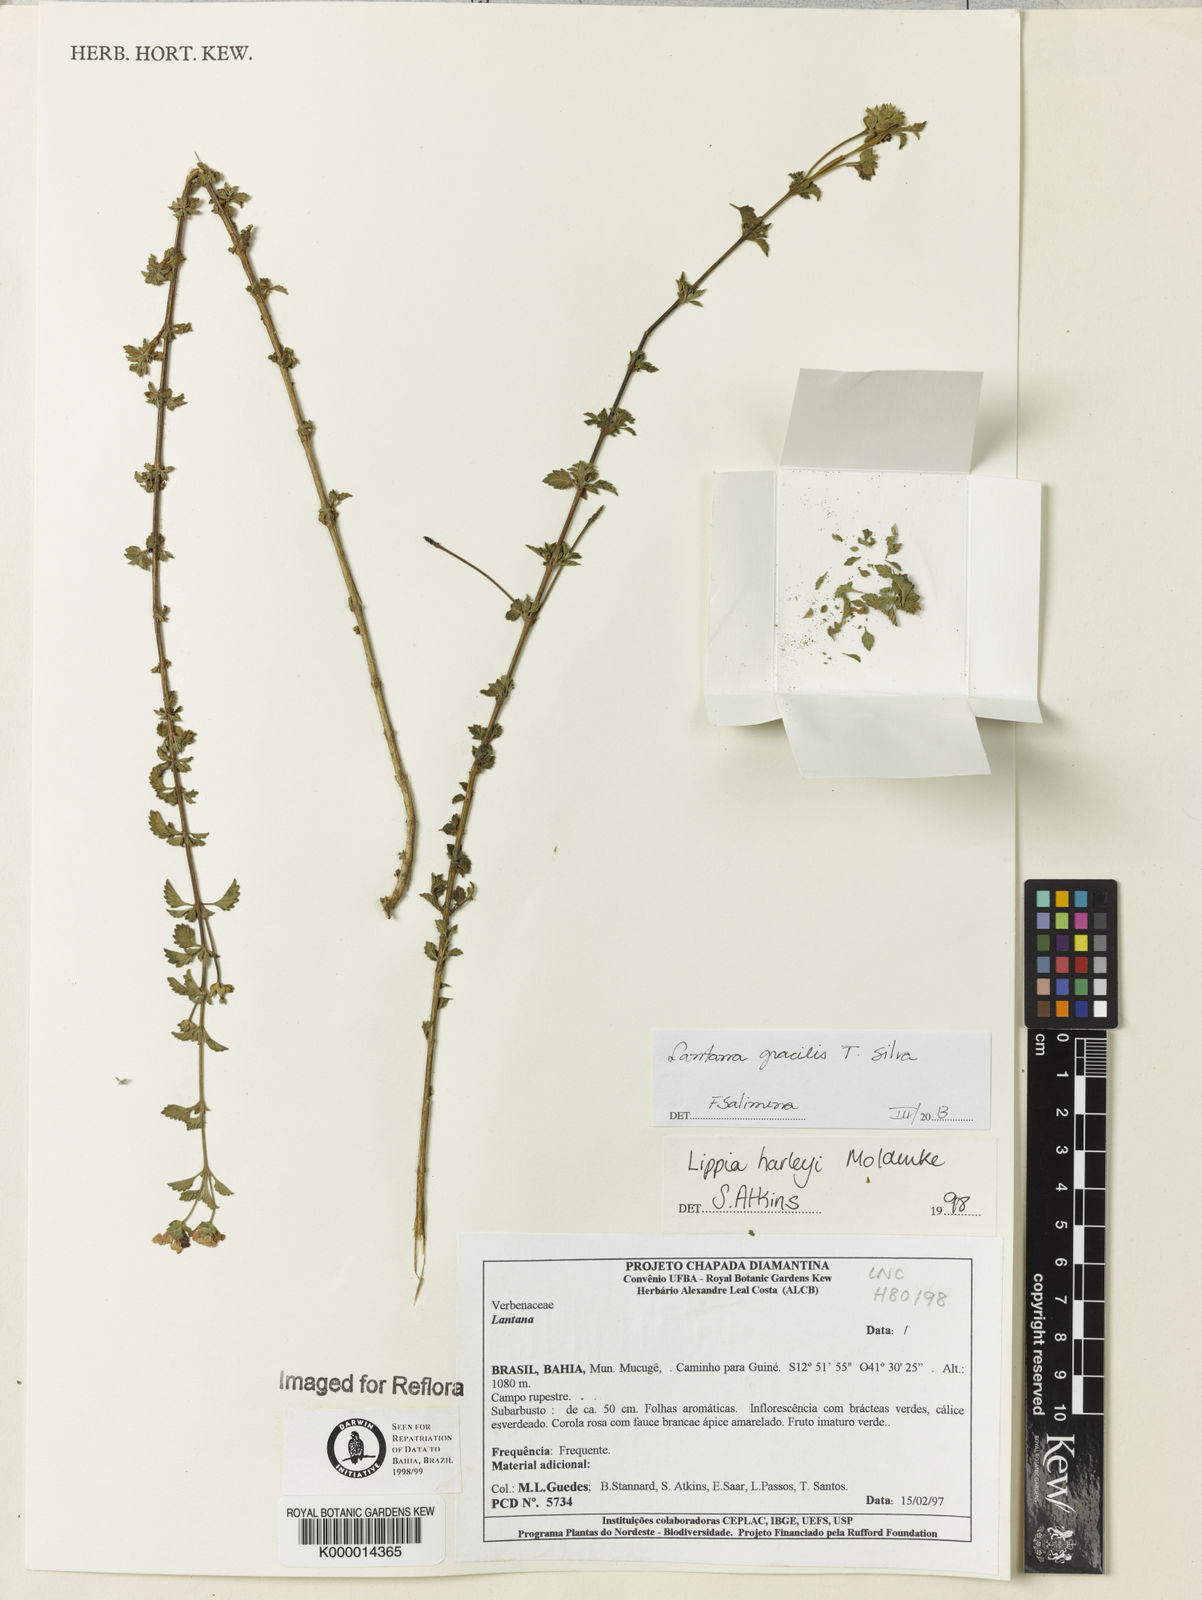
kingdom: Plantae
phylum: Tracheophyta
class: Magnoliopsida
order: Lamiales
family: Verbenaceae
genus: Lippia
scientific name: Lippia harleyi
